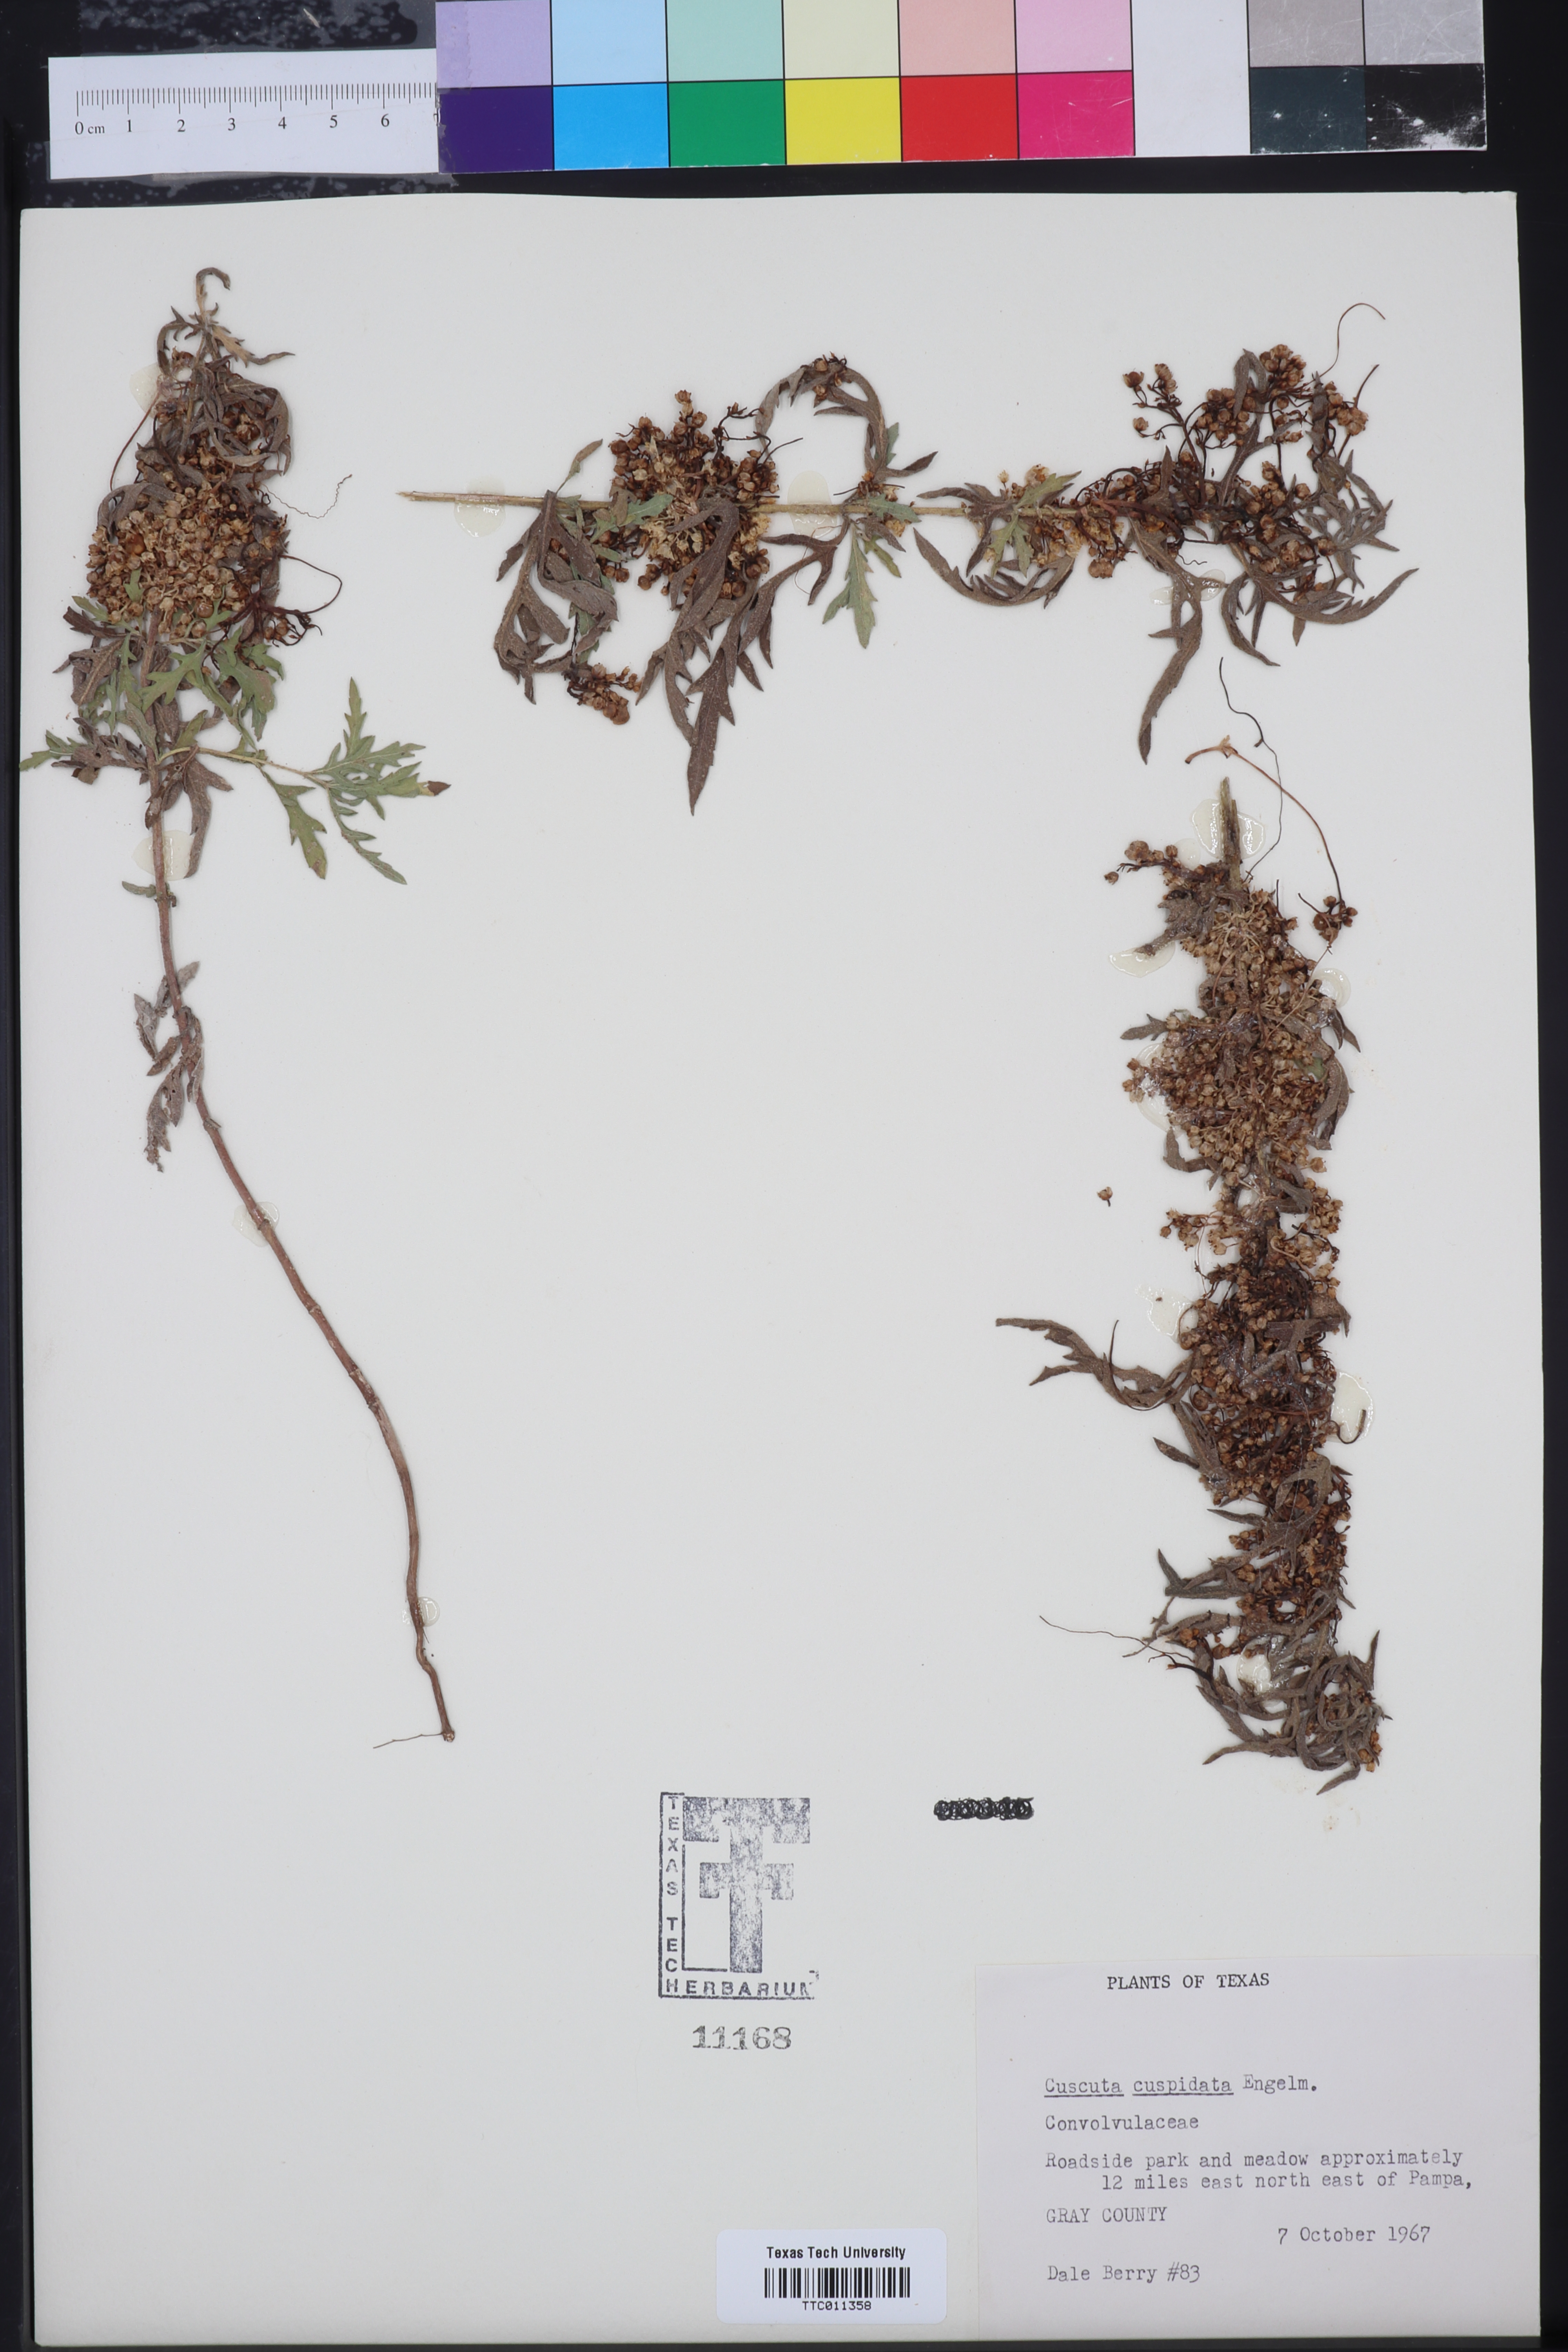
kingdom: Plantae
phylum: Tracheophyta
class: Magnoliopsida
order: Solanales
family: Convolvulaceae
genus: Cressa
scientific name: Cressa
